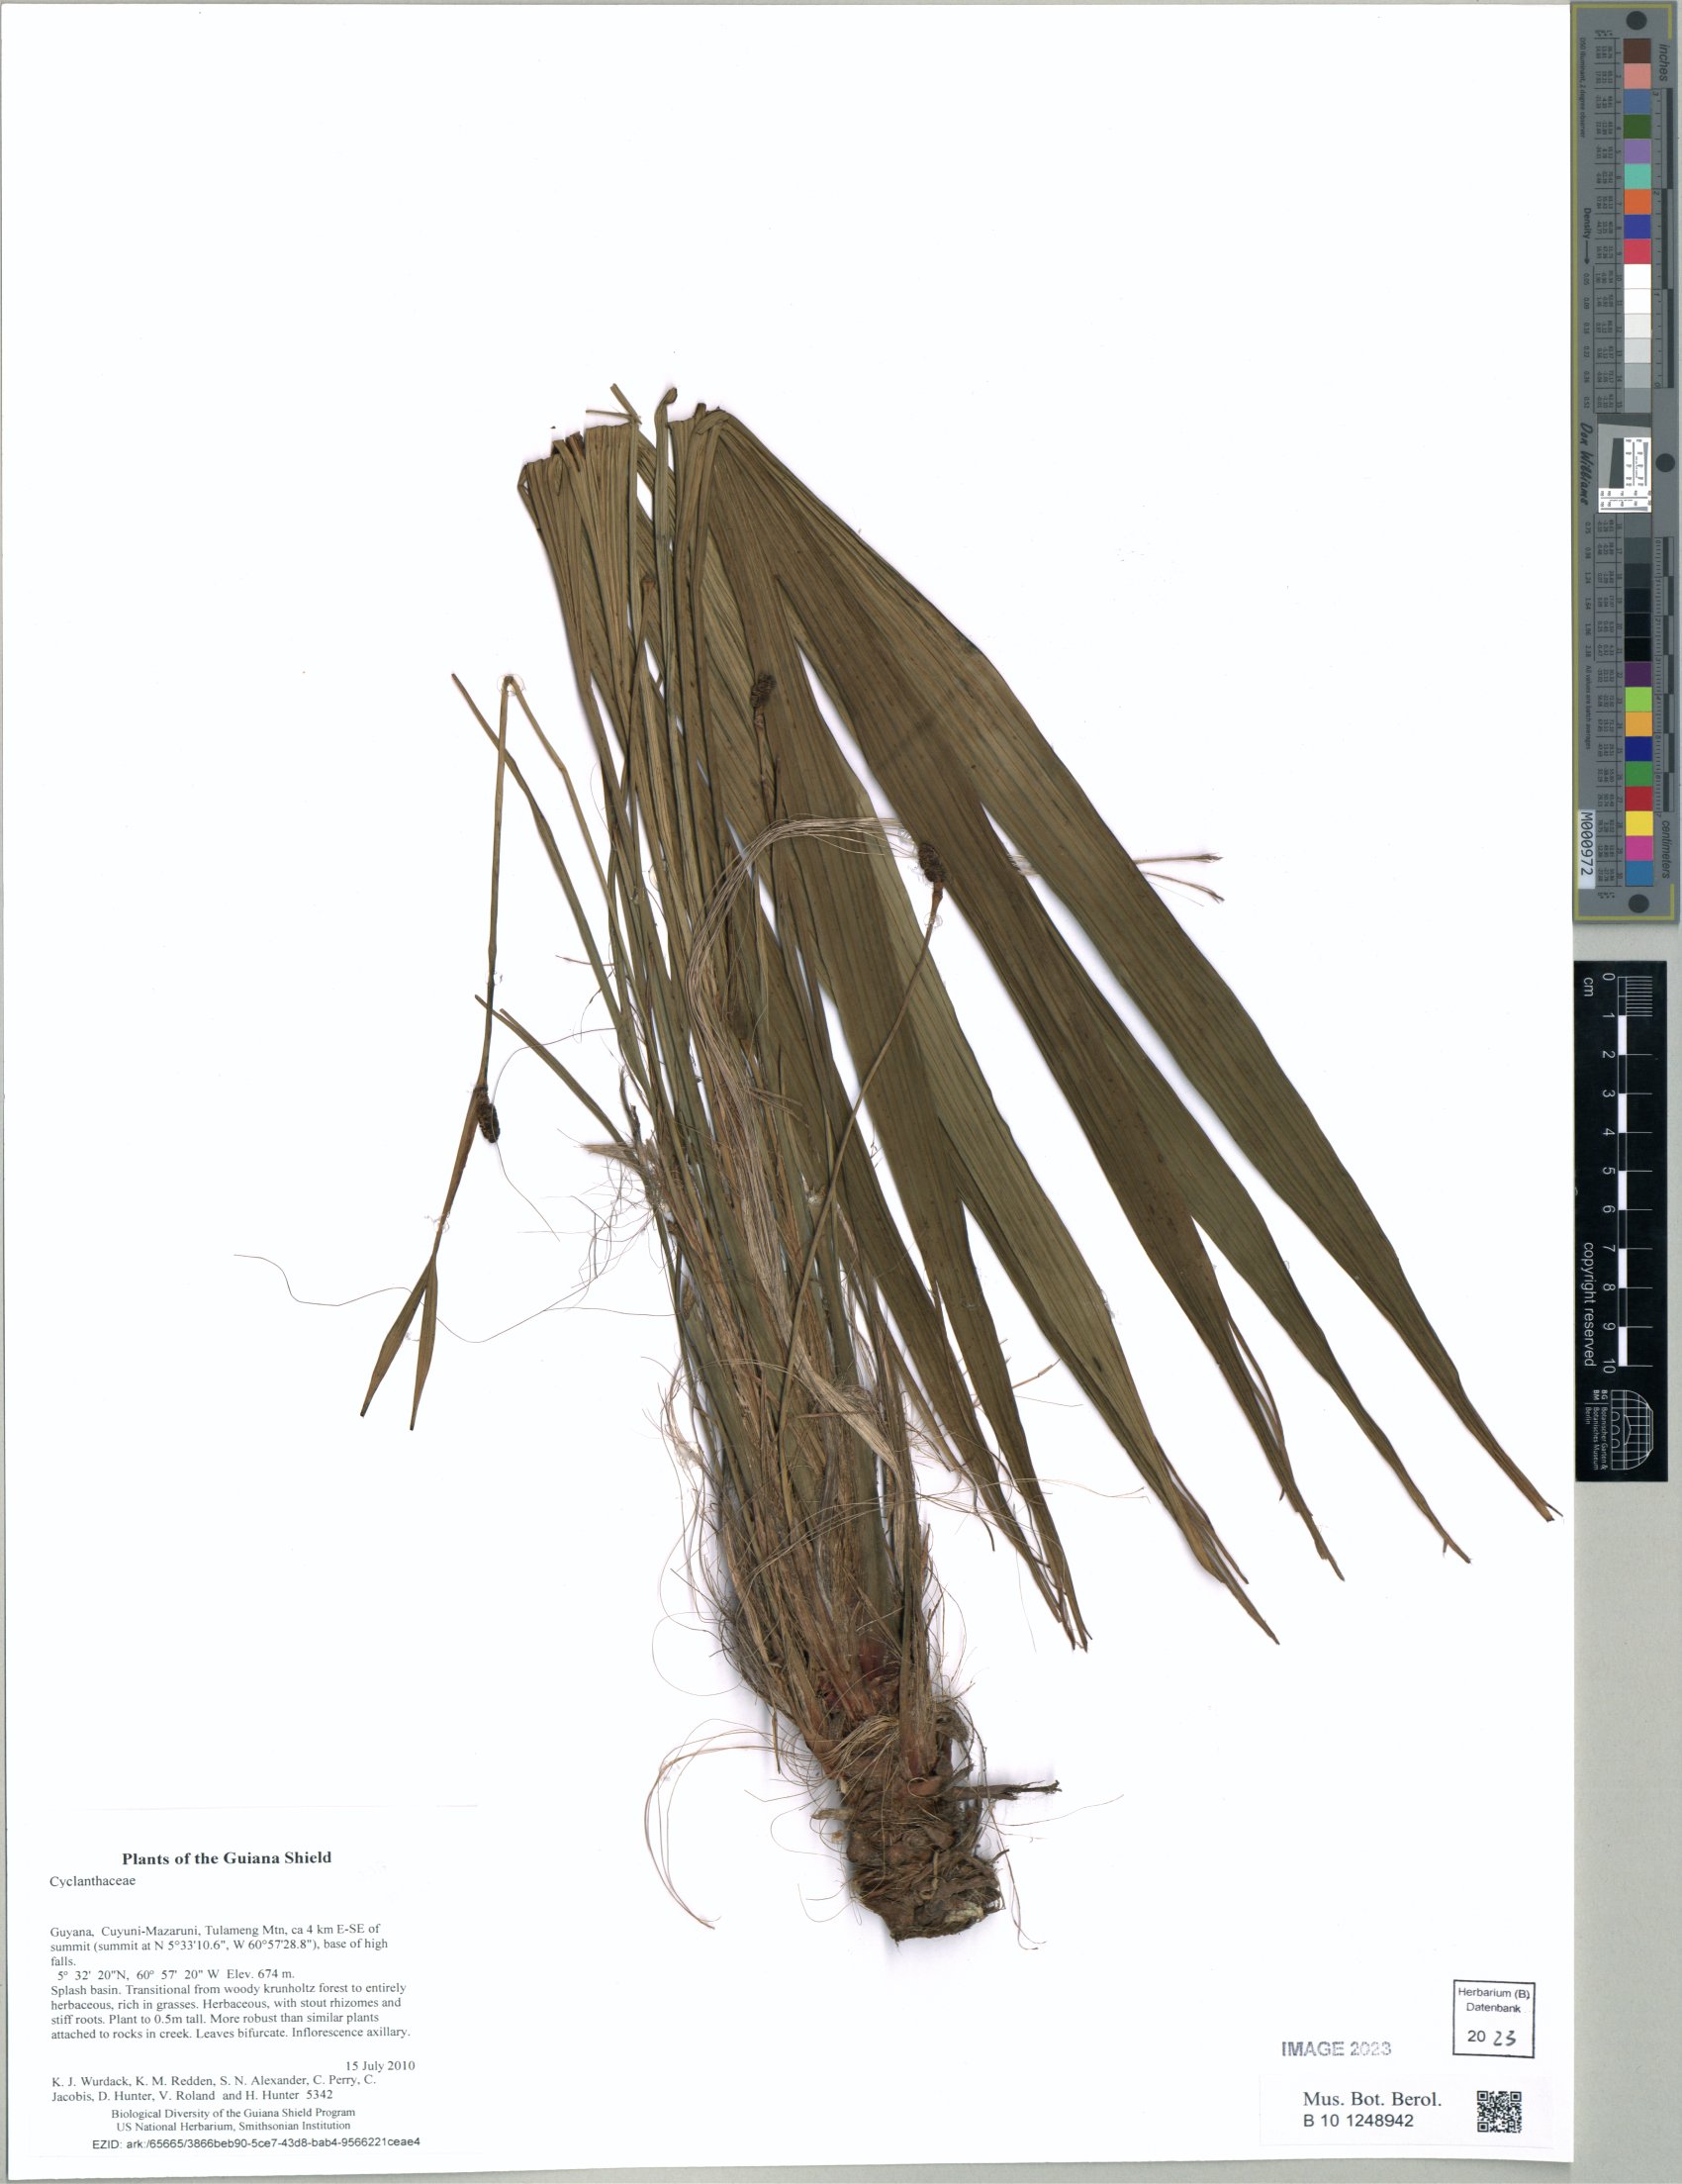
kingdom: Plantae
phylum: Tracheophyta
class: Liliopsida
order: Pandanales
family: Cyclanthaceae
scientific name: Cyclanthaceae
